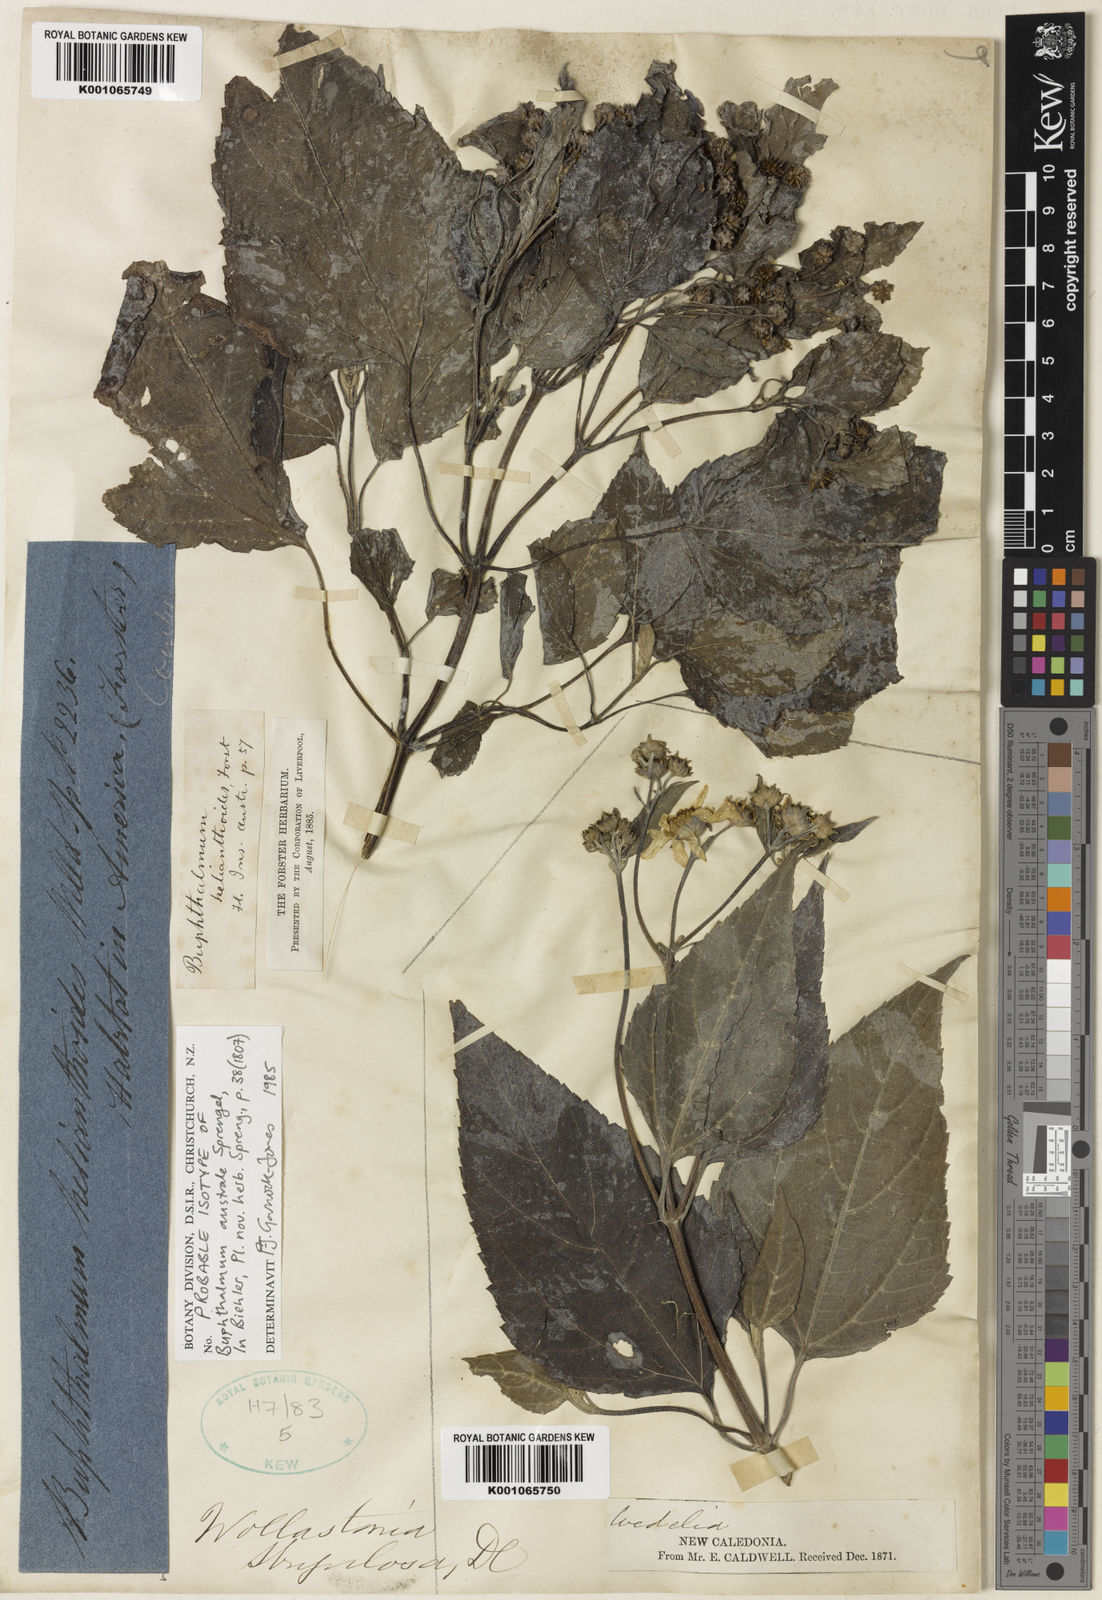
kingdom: Plantae
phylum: Tracheophyta
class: Magnoliopsida
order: Asterales
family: Asteraceae
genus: Wollastonia
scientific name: Wollastonia biflora
